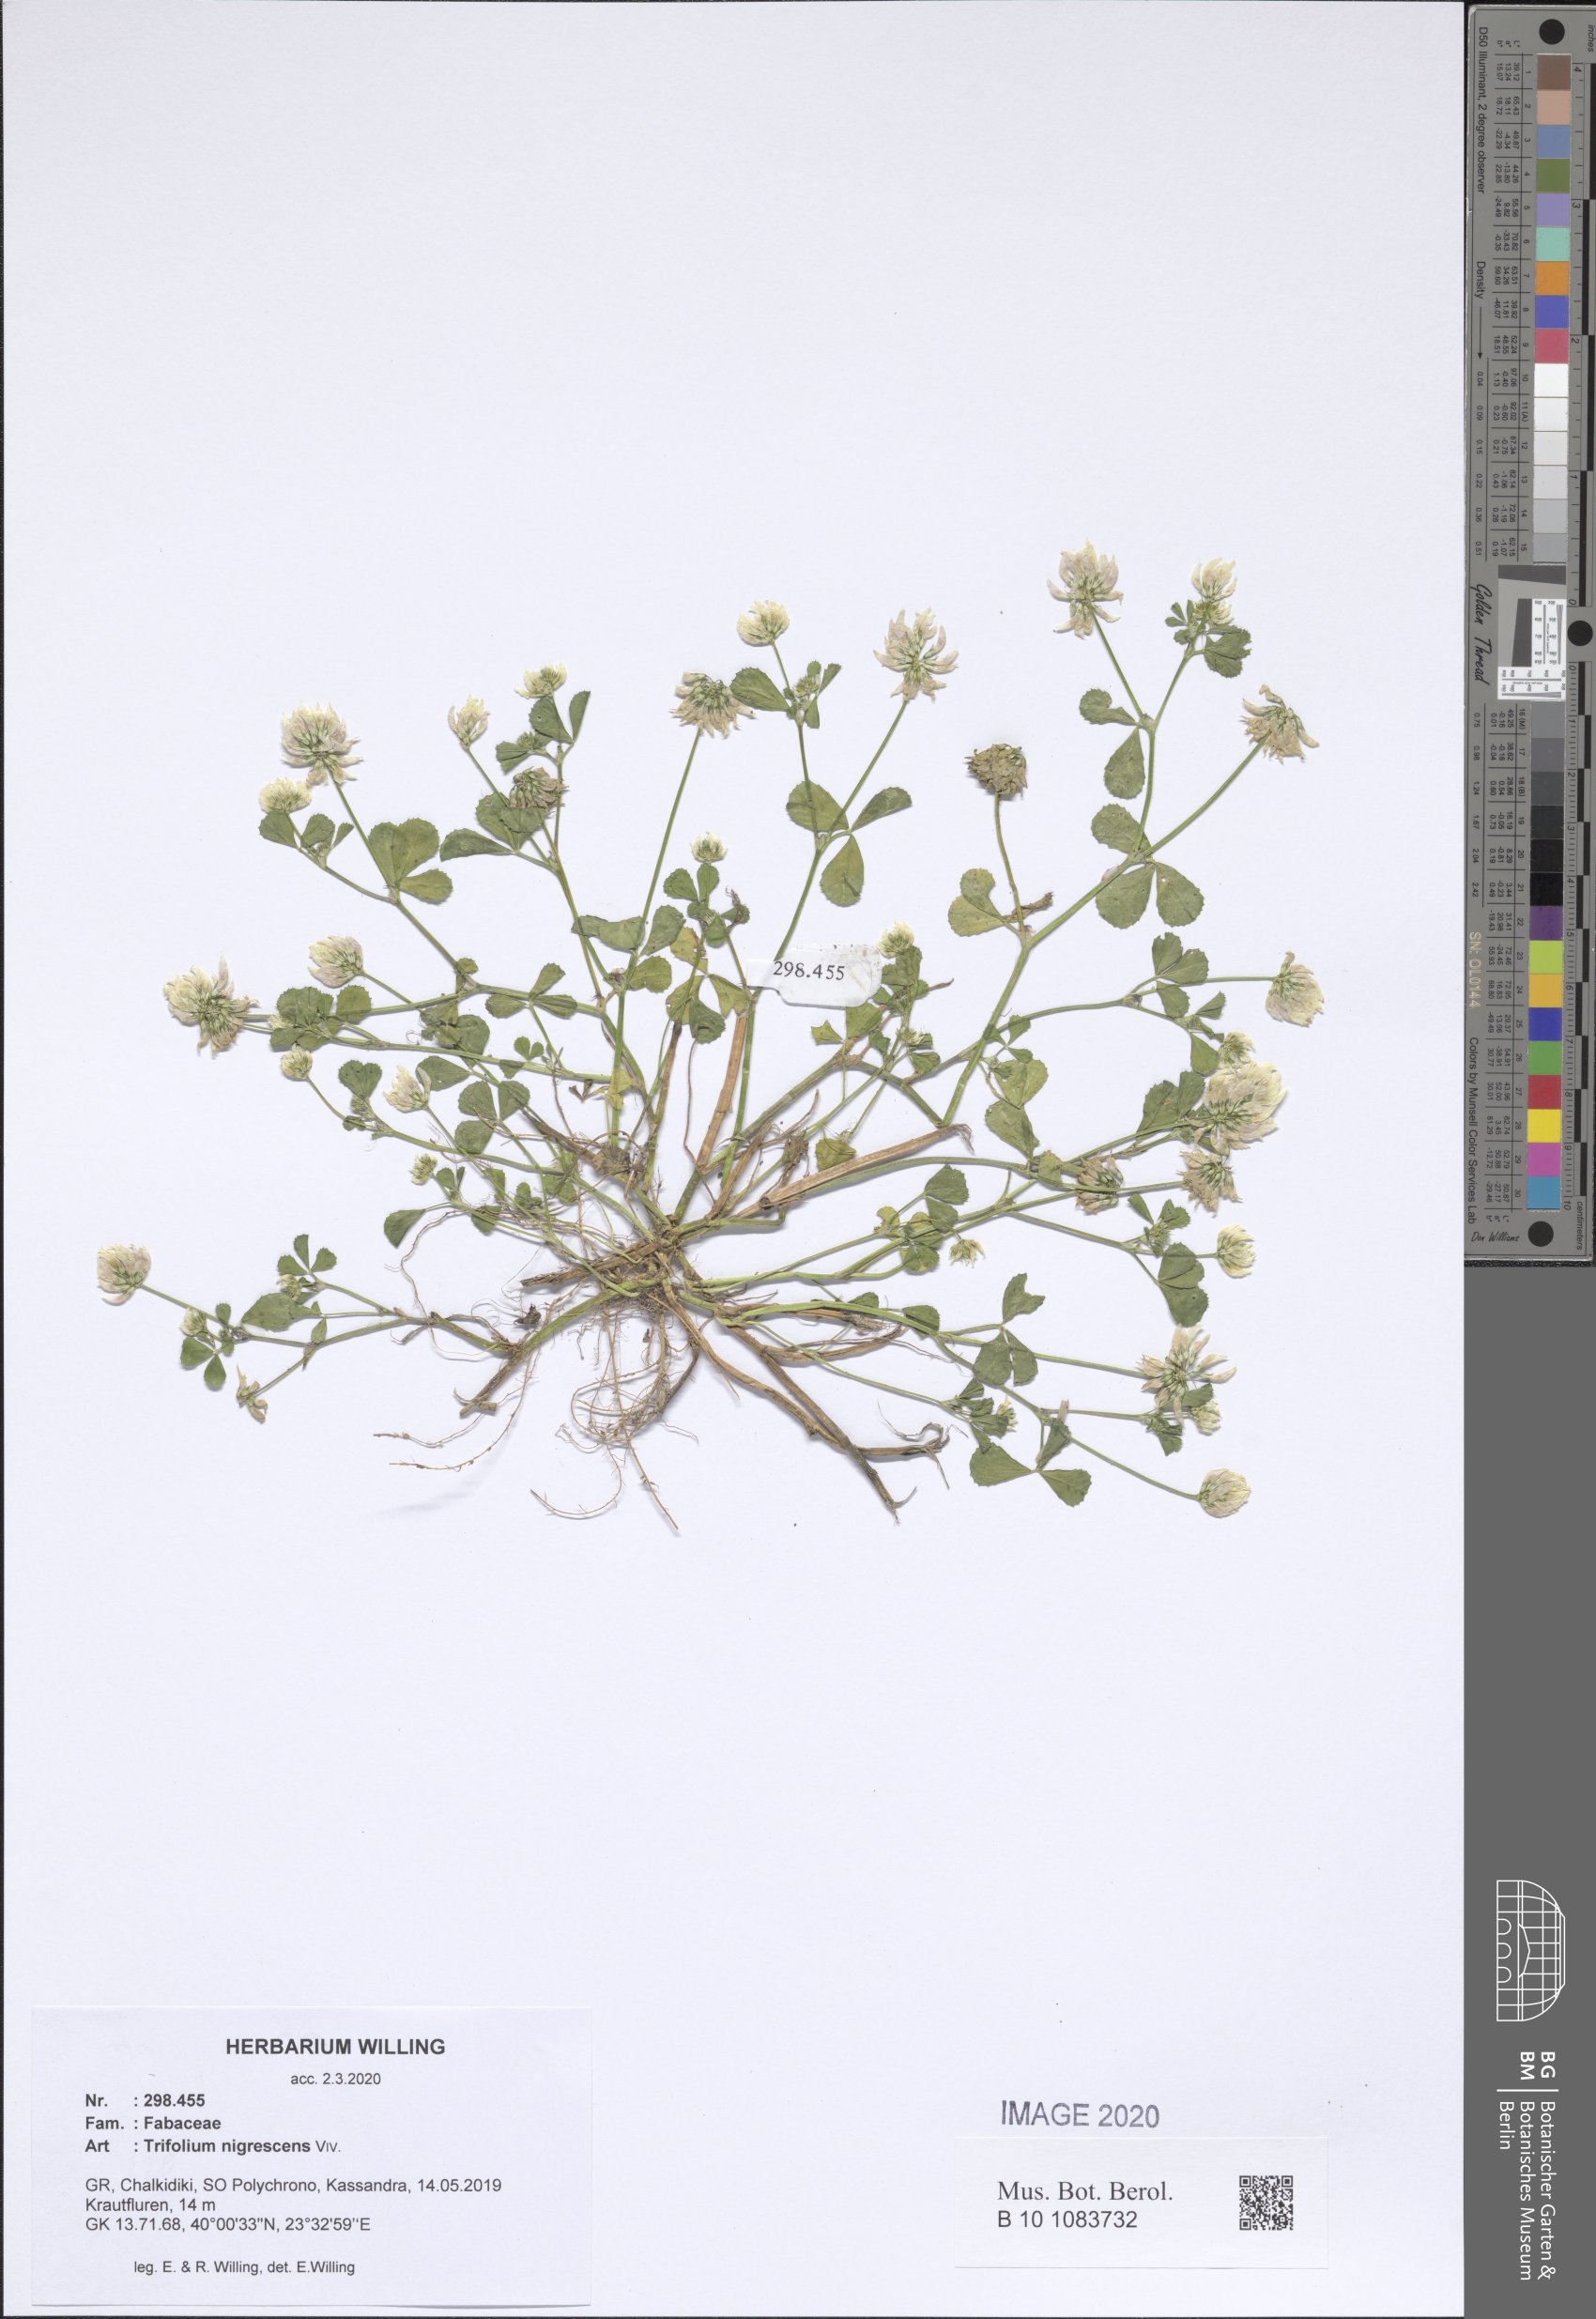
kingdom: Plantae
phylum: Tracheophyta
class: Magnoliopsida
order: Fabales
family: Fabaceae
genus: Trifolium
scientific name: Trifolium nigrescens
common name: Small white clover
